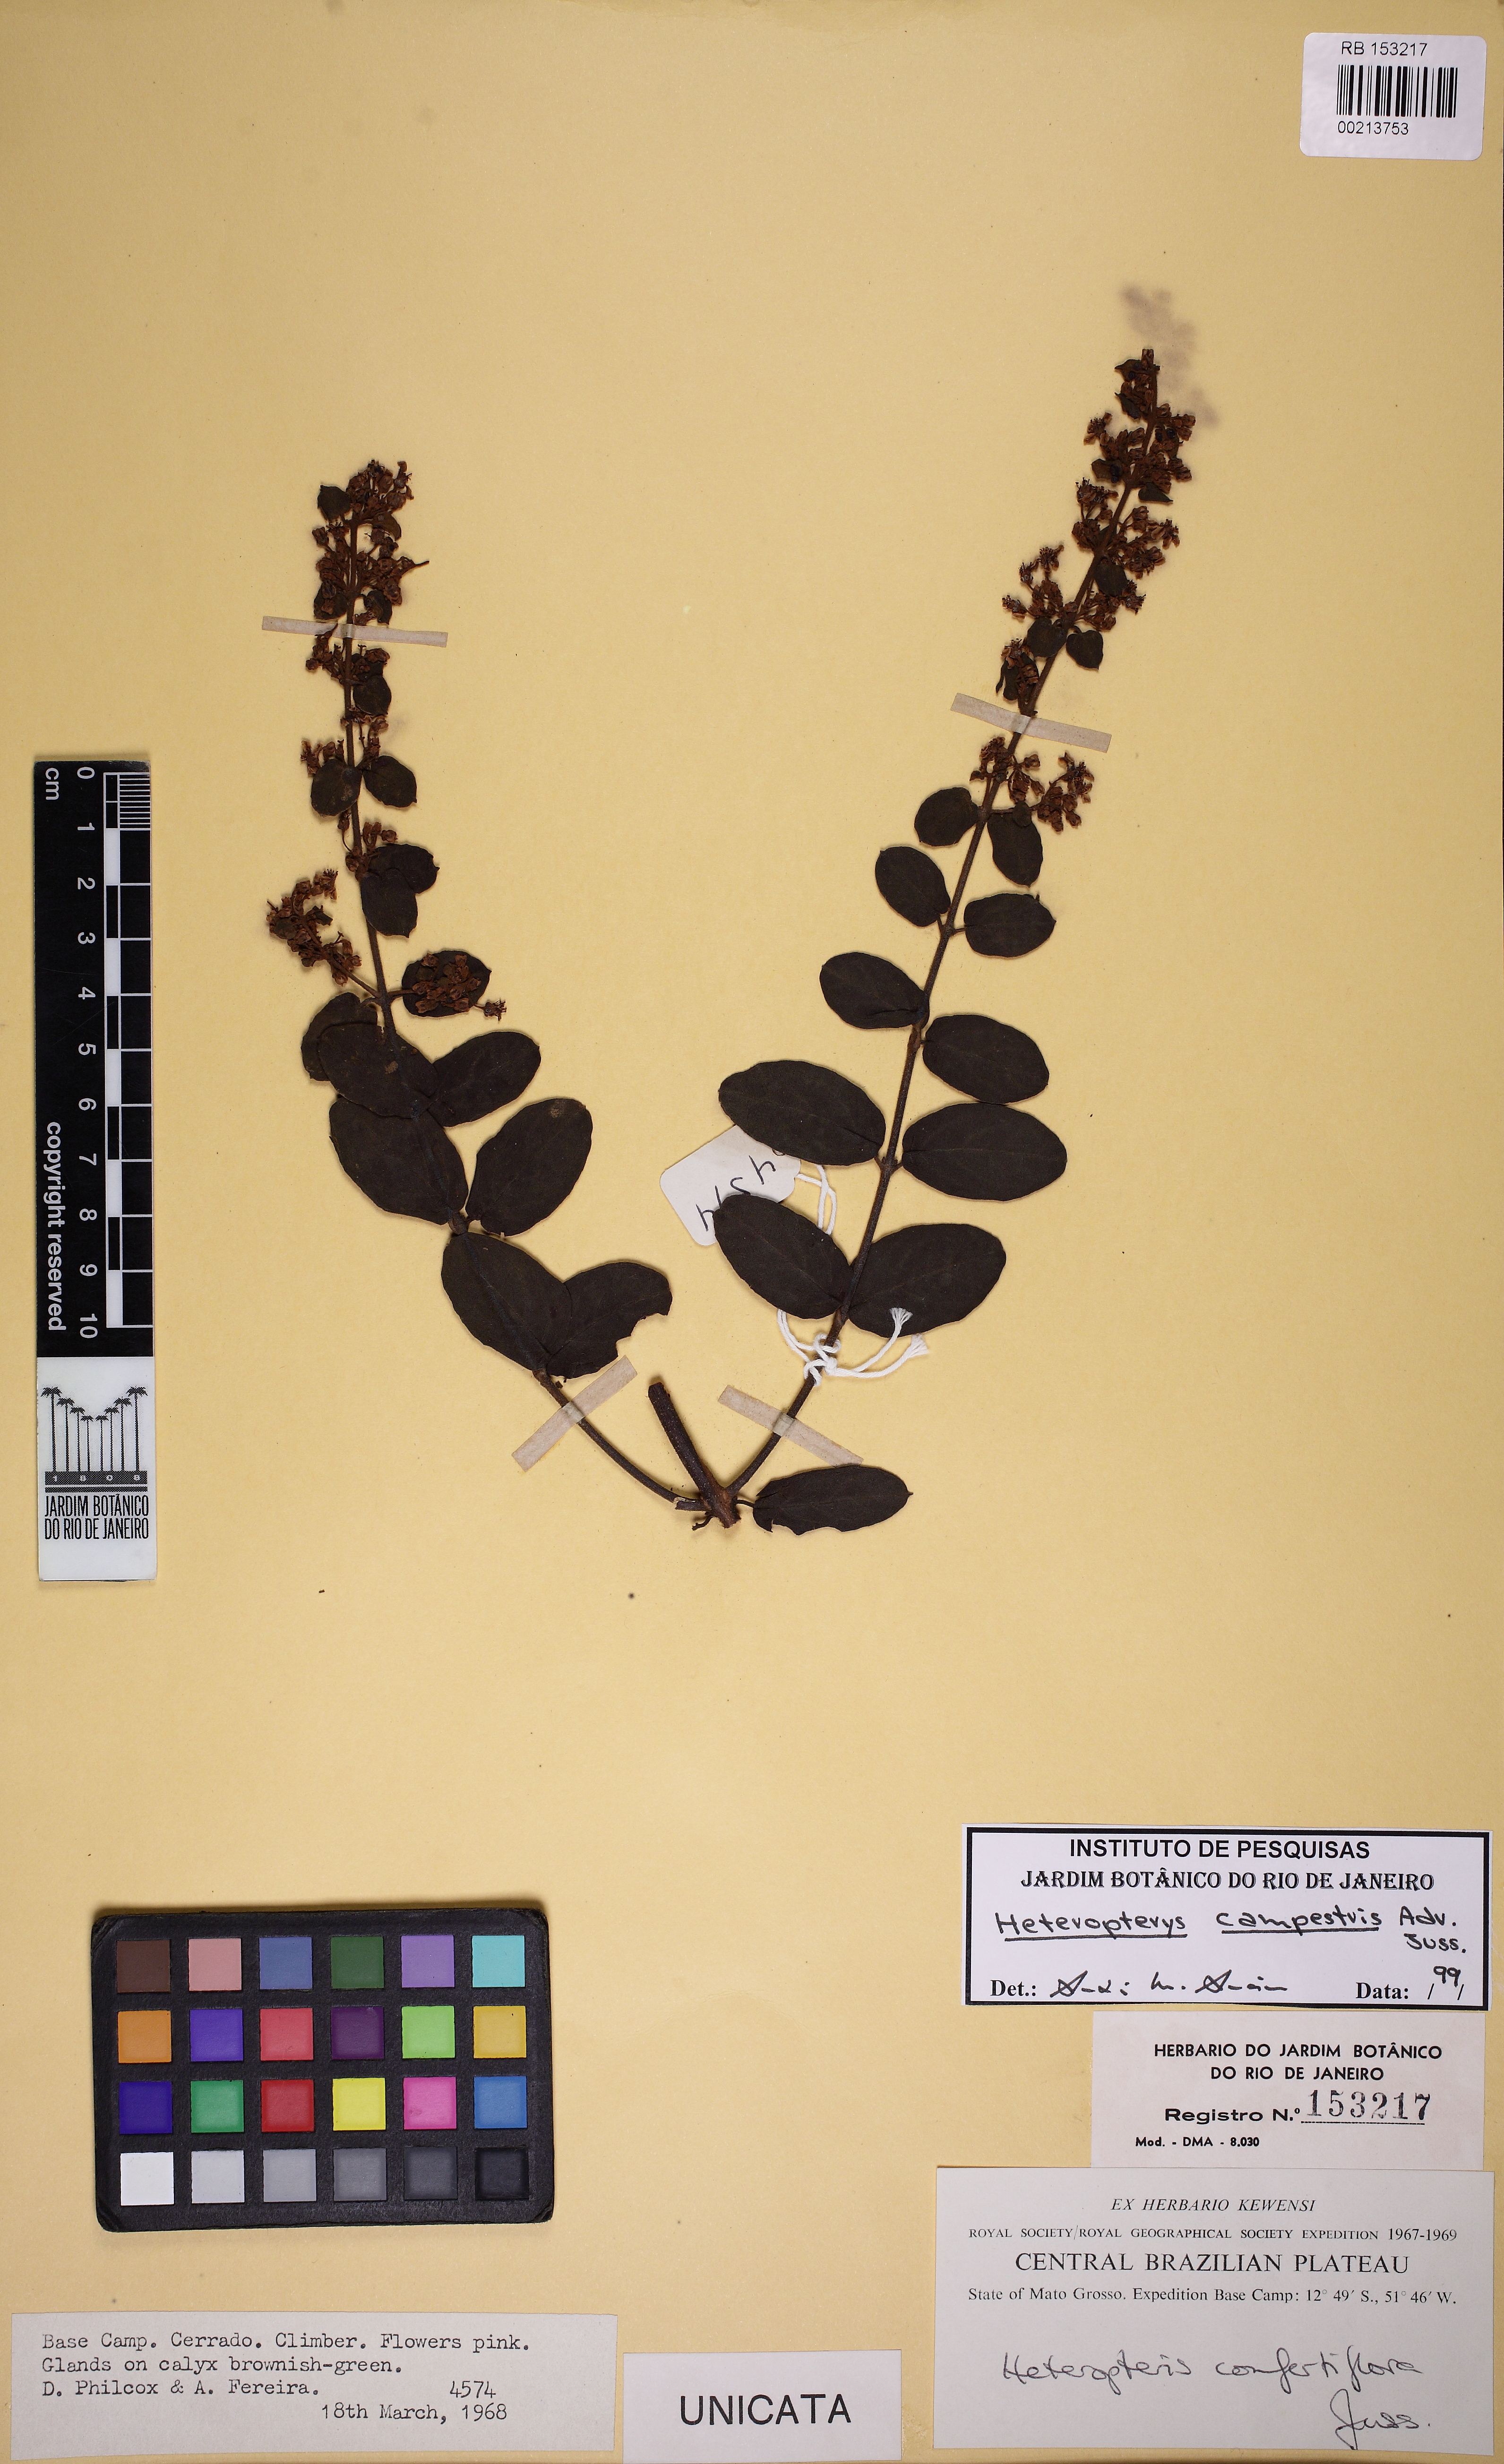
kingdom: Plantae
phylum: Tracheophyta
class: Magnoliopsida
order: Malpighiales
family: Malpighiaceae
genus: Heteropterys
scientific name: Heteropterys campestris
